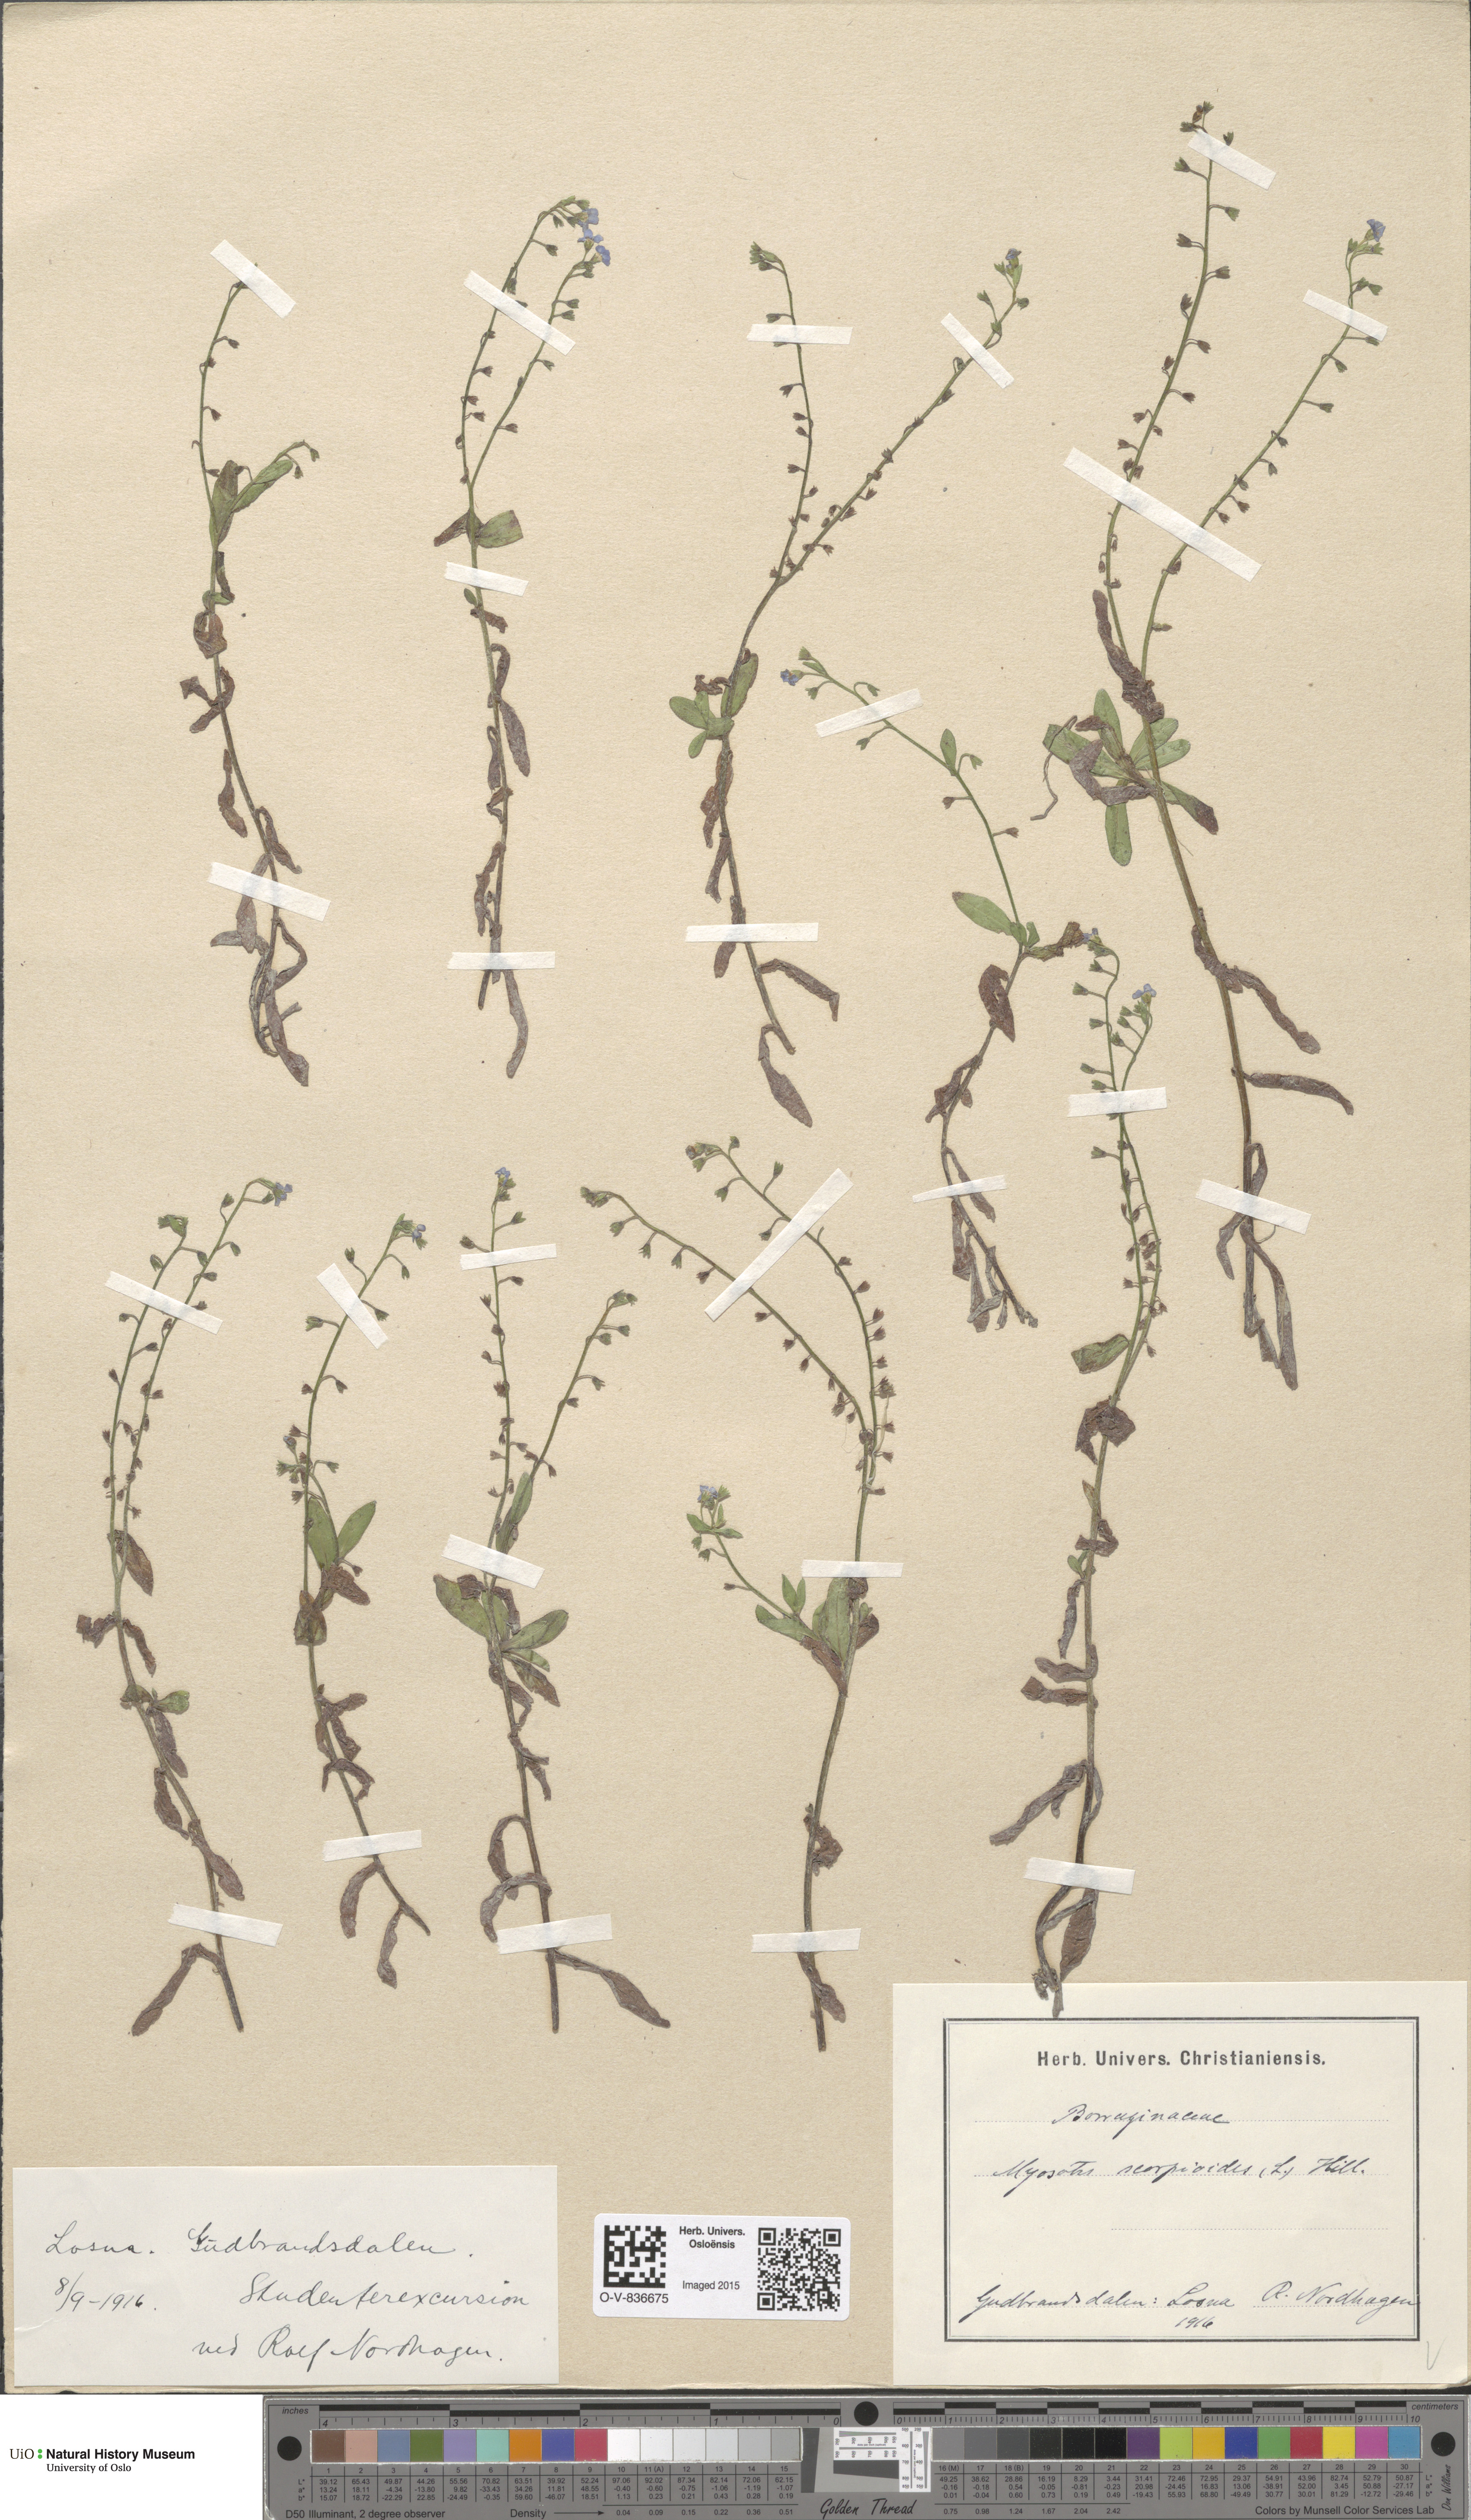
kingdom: Plantae
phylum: Tracheophyta
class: Magnoliopsida
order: Boraginales
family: Boraginaceae
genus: Myosotis
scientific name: Myosotis scorpioides
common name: Water forget-me-not
